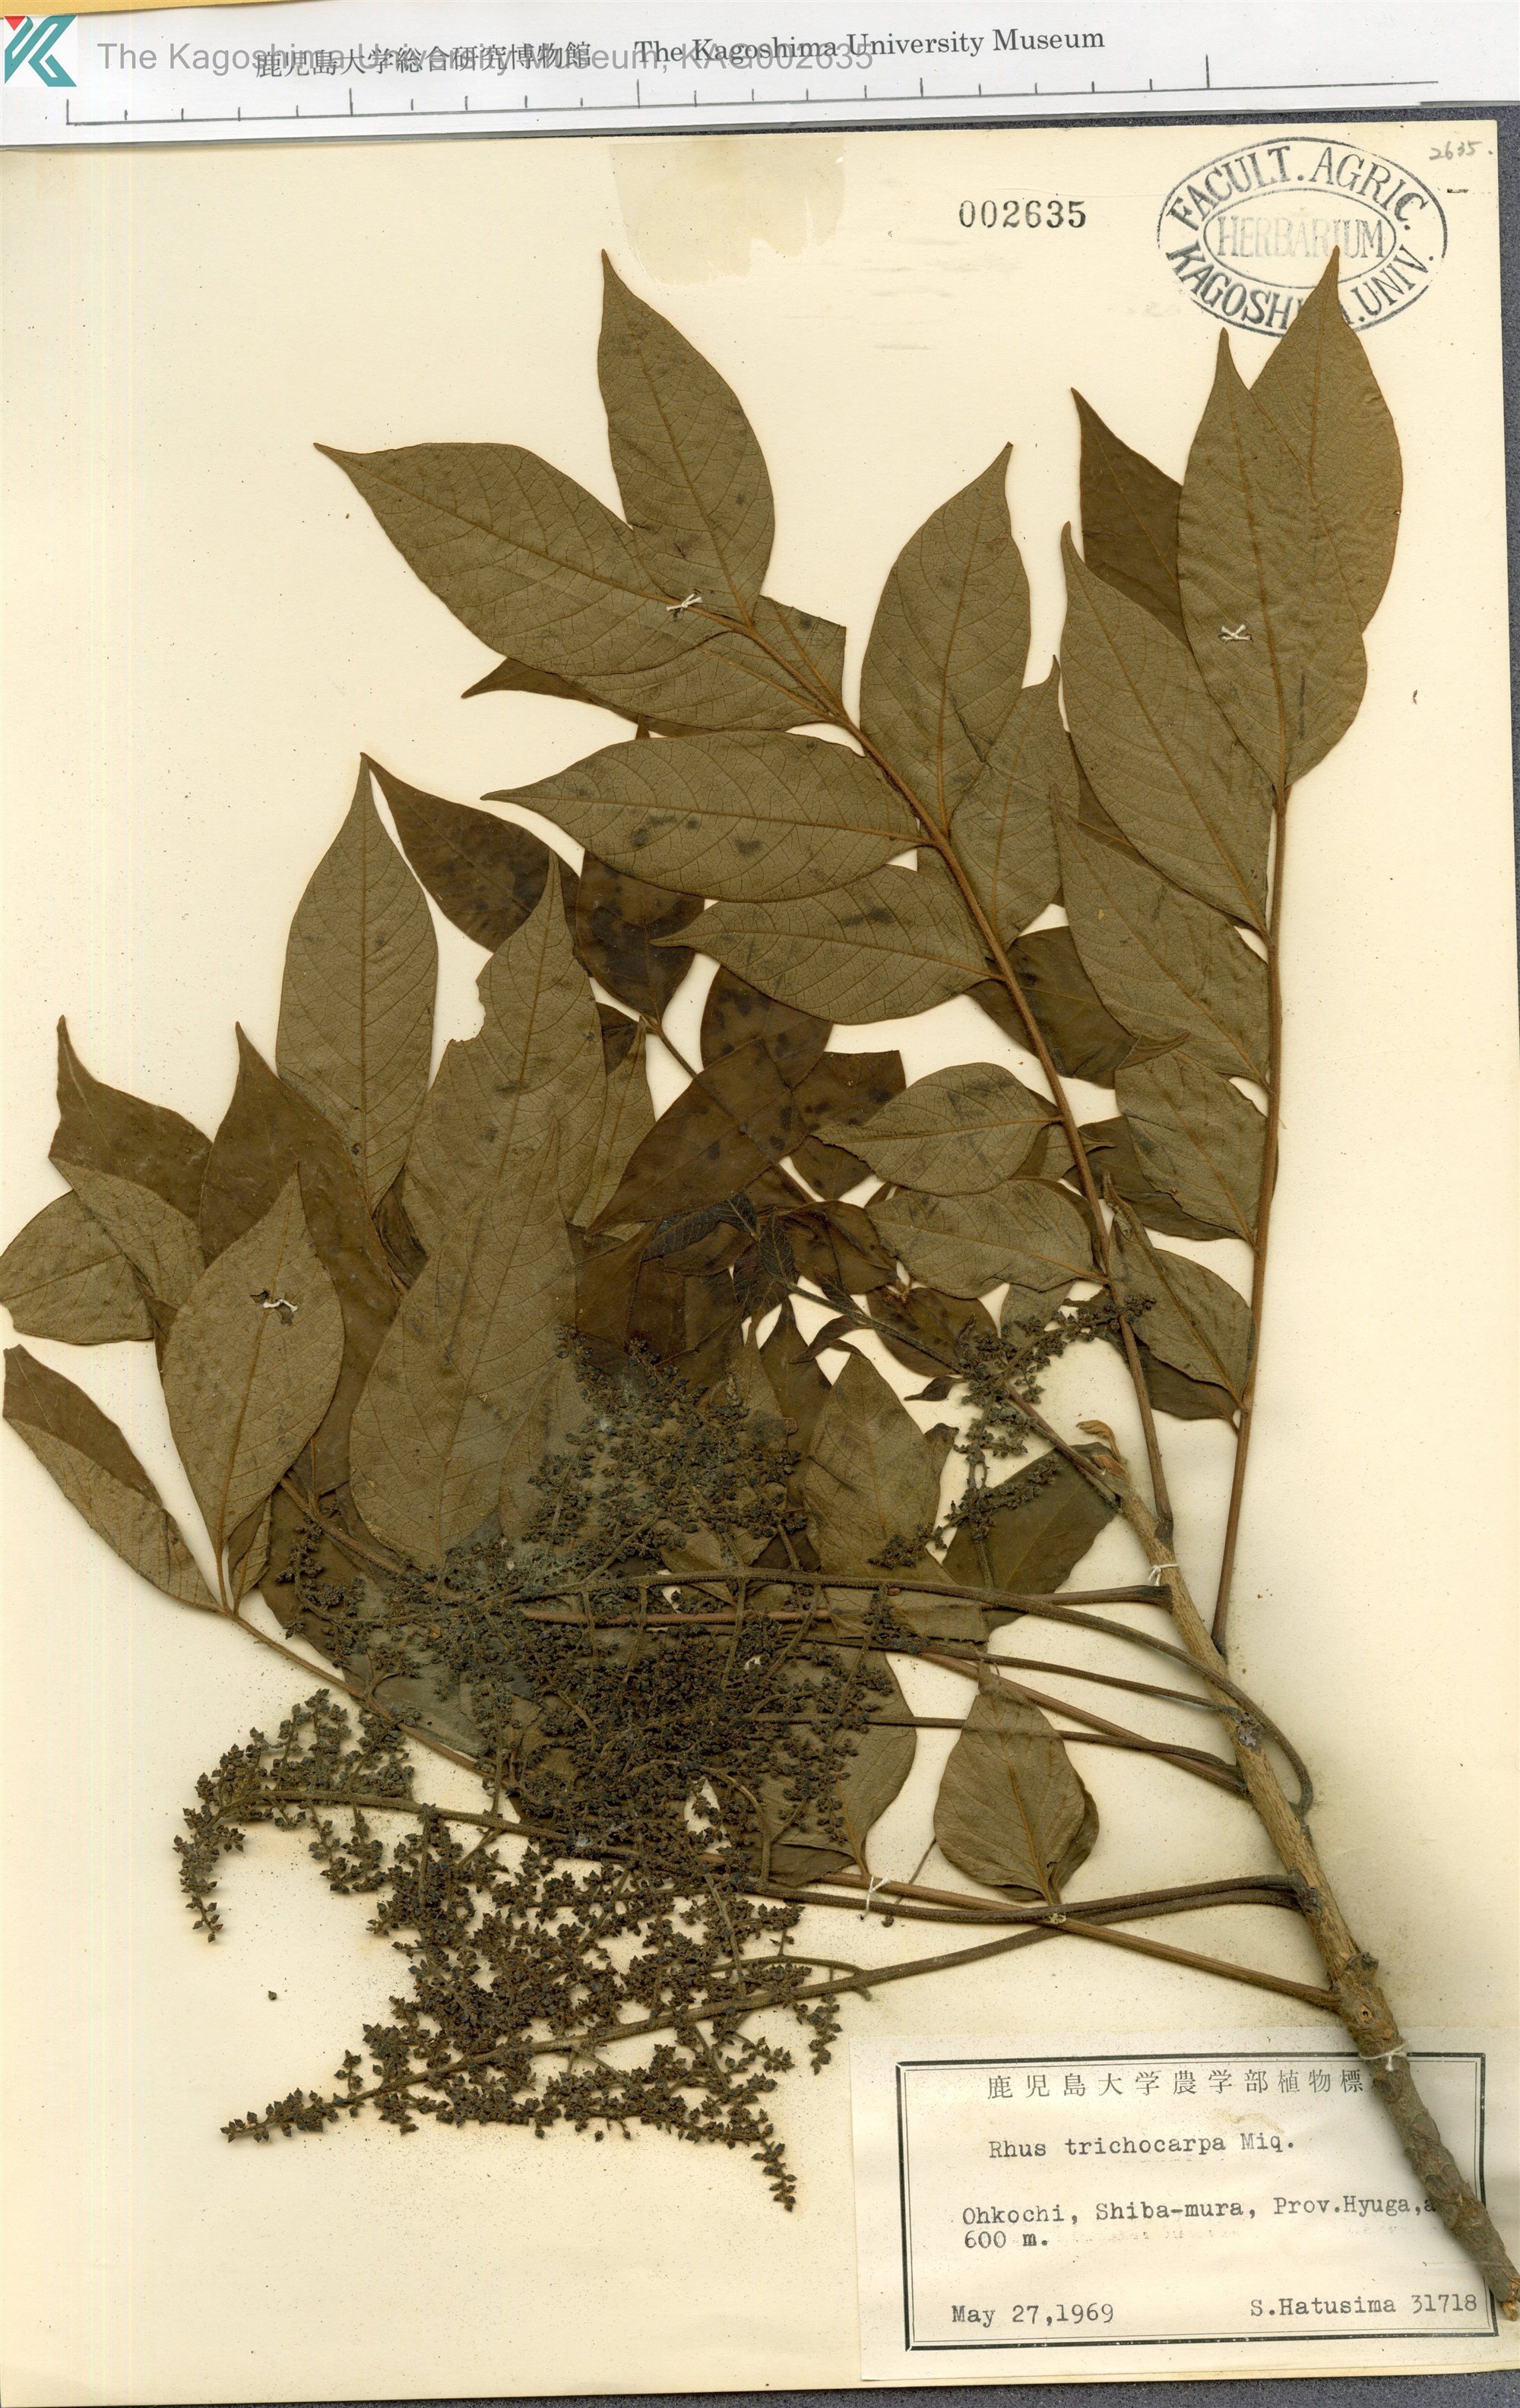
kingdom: Plantae
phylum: Tracheophyta
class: Magnoliopsida
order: Sapindales
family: Anacardiaceae
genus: Toxicodendron
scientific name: Toxicodendron trichocarpum
